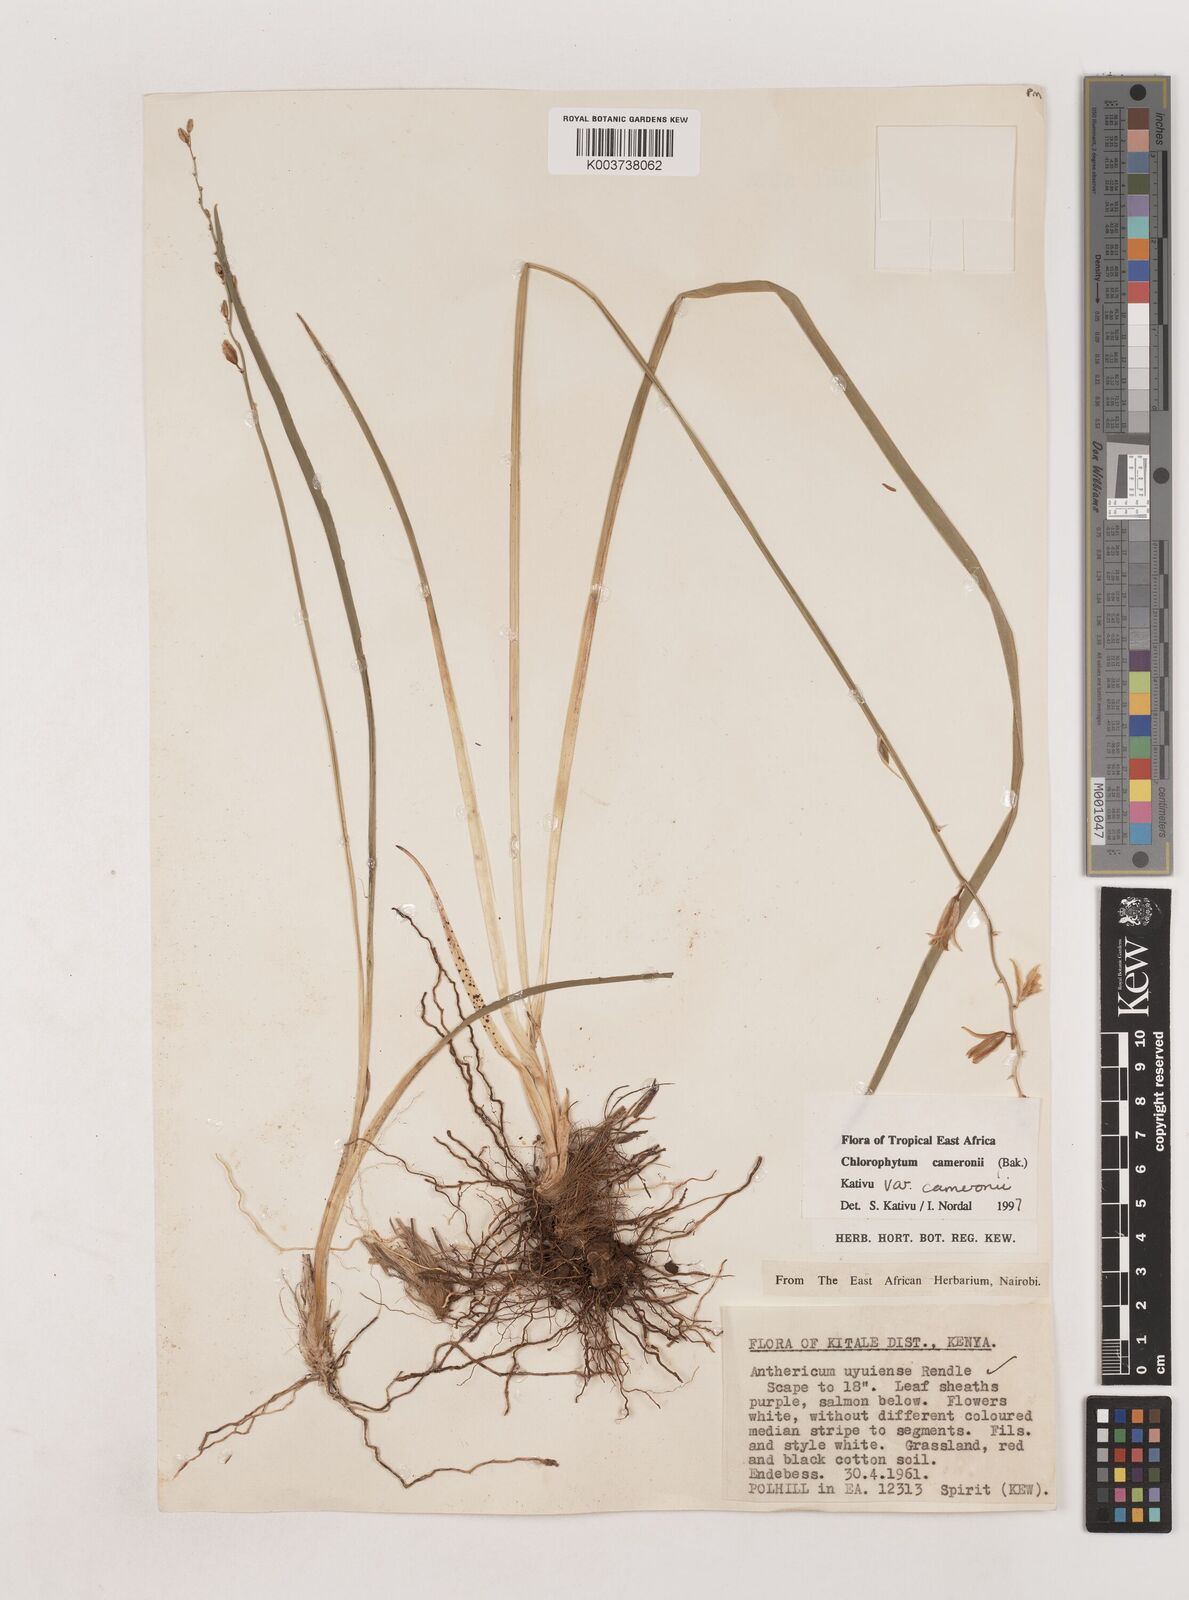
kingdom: Plantae
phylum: Tracheophyta
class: Liliopsida
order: Asparagales
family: Asparagaceae
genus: Chlorophytum
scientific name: Chlorophytum cameronii
